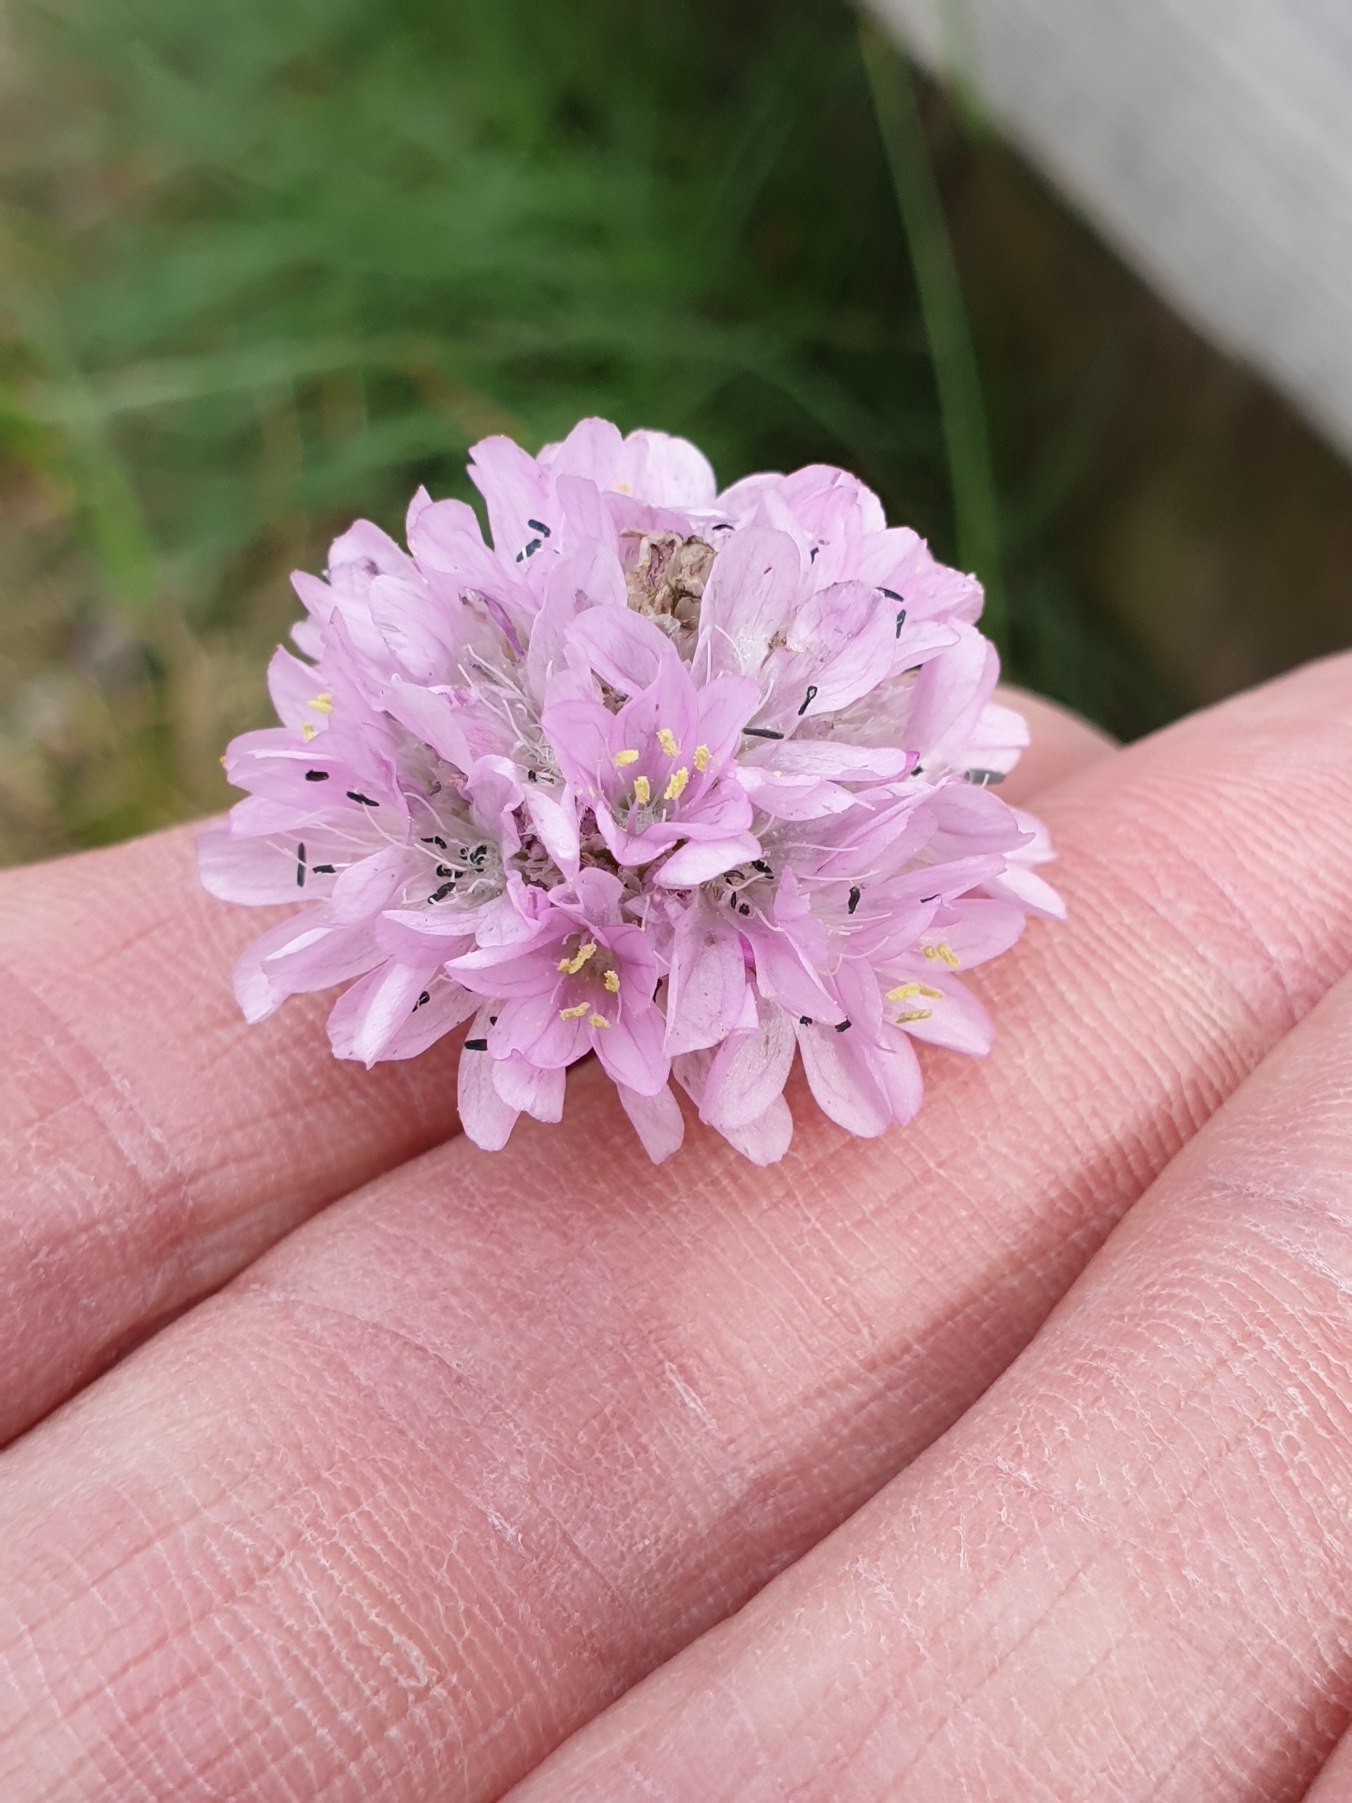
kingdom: Plantae
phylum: Tracheophyta
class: Magnoliopsida
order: Caryophyllales
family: Plumbaginaceae
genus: Armeria
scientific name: Armeria maritima
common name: Engelskgræs
